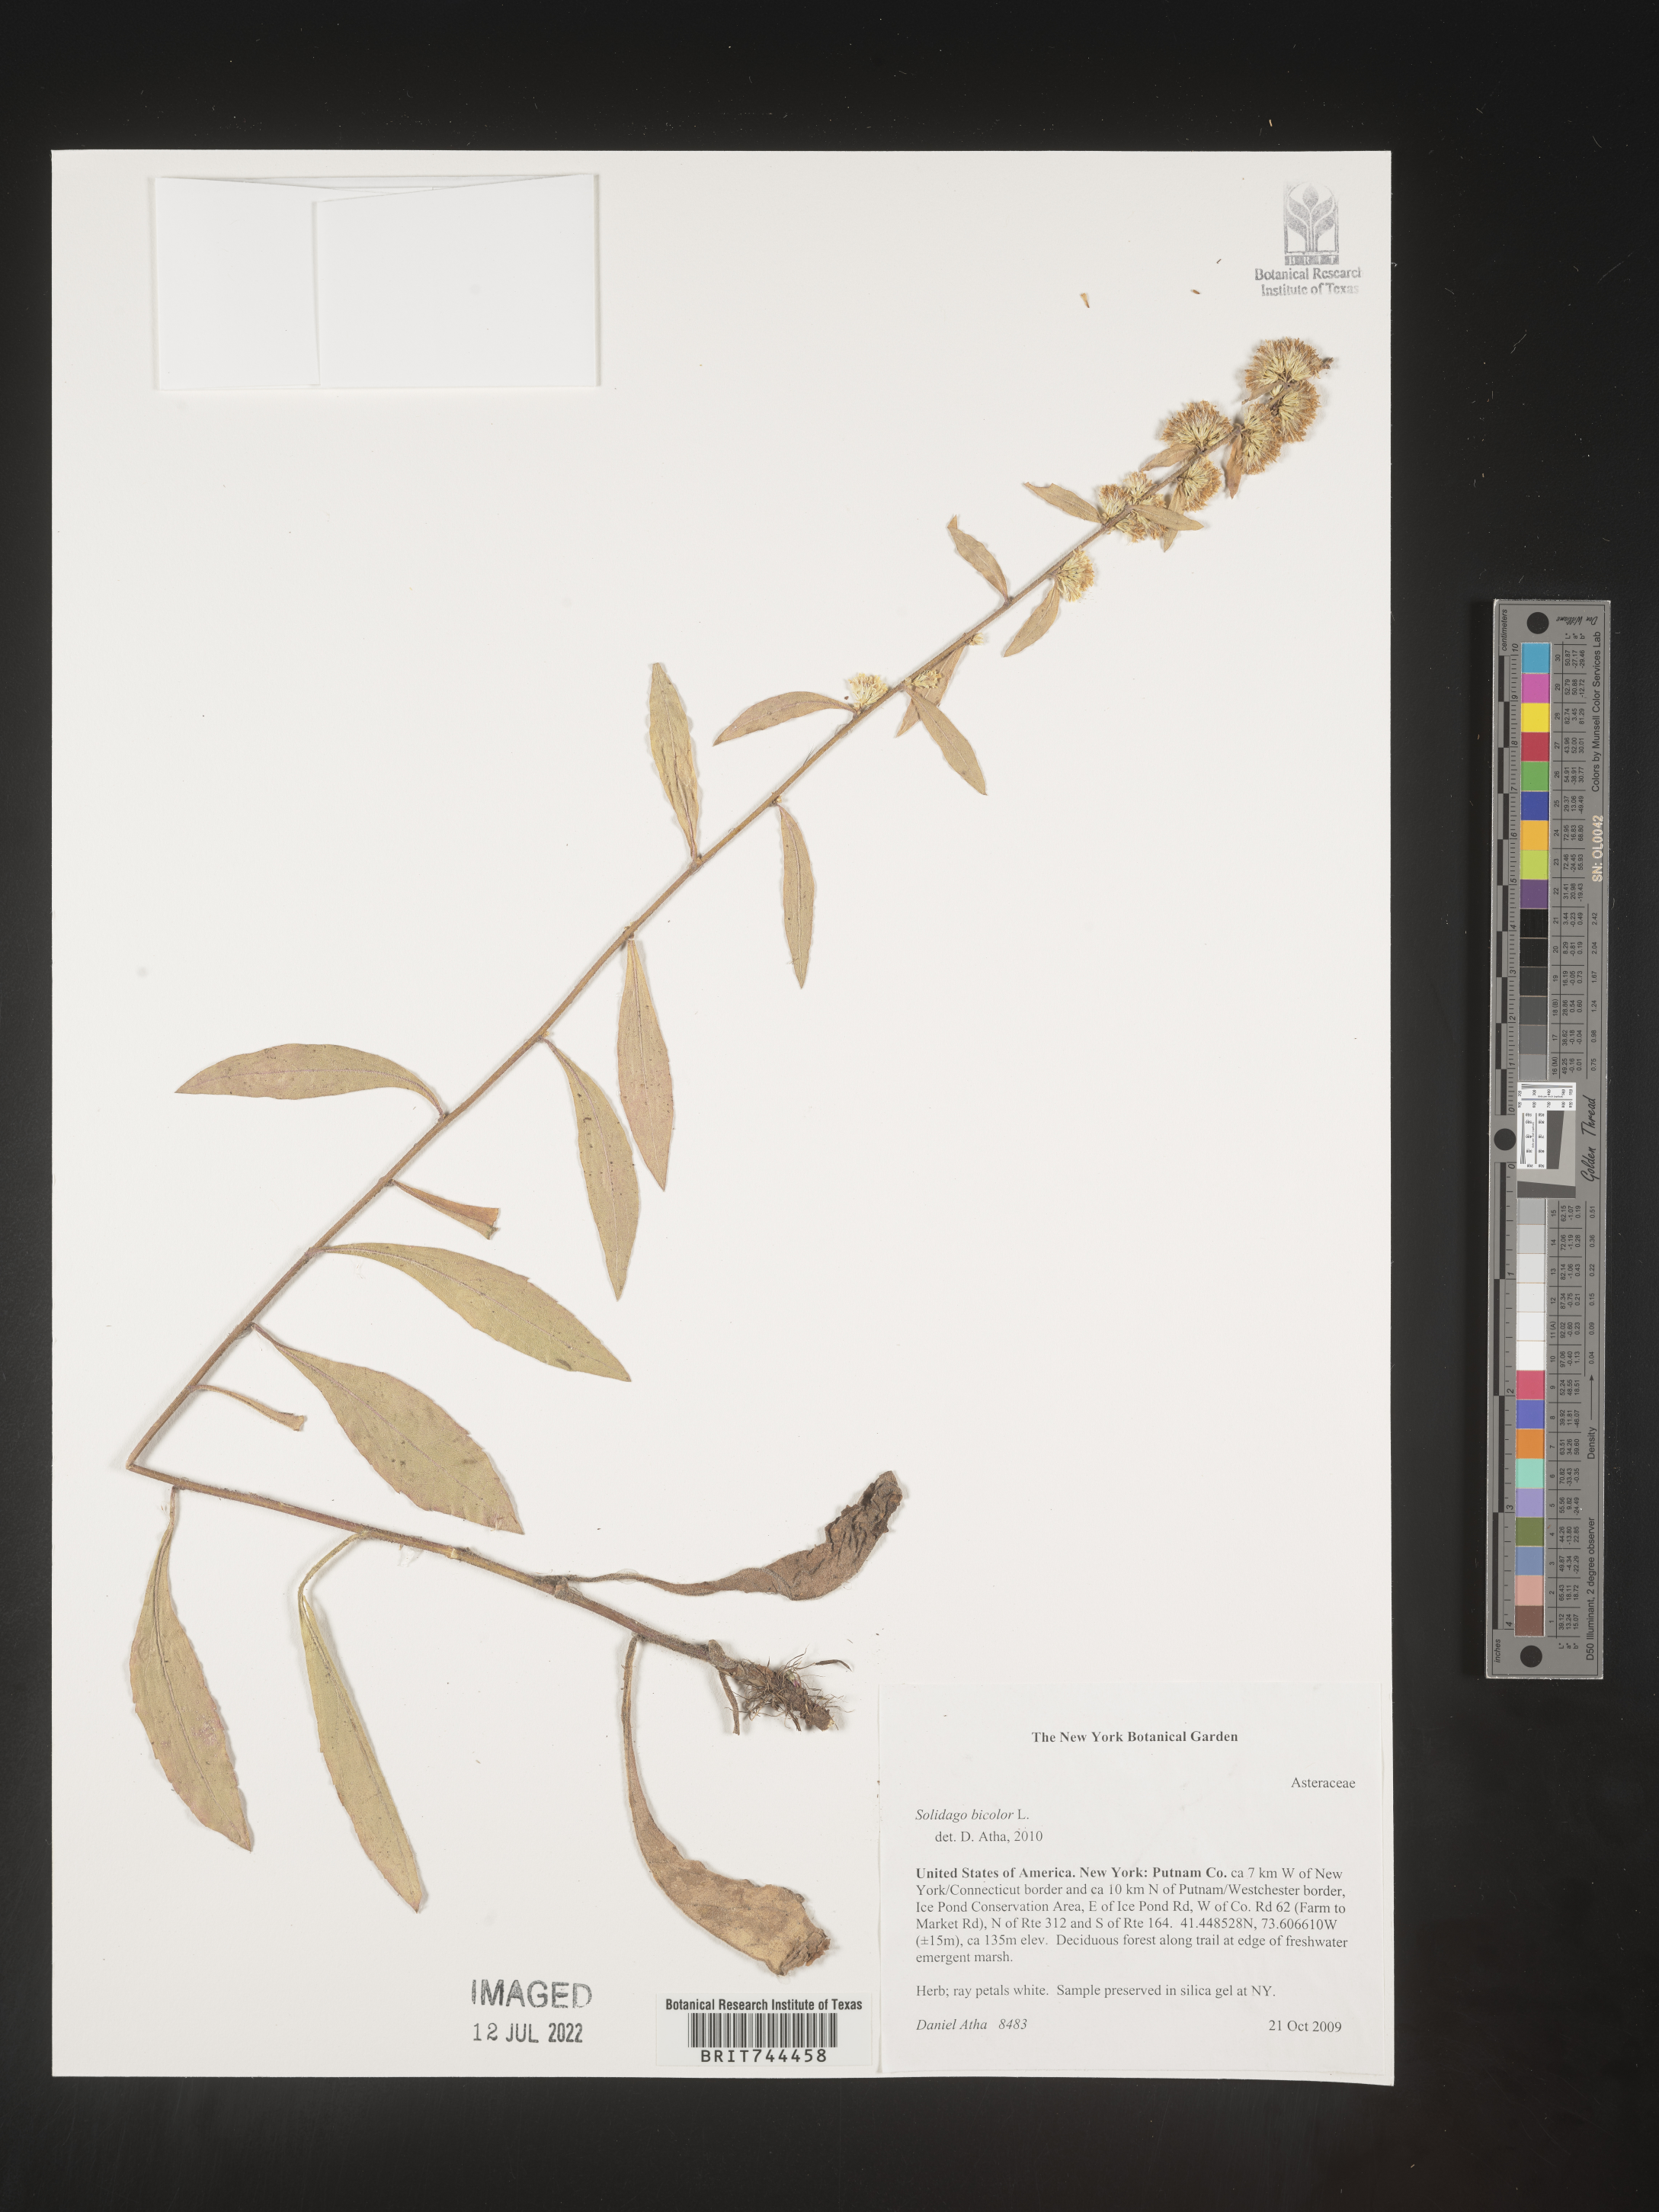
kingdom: Plantae
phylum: Tracheophyta
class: Magnoliopsida
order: Asterales
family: Asteraceae
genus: Solidago
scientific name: Solidago bicolor
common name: Silverrod
